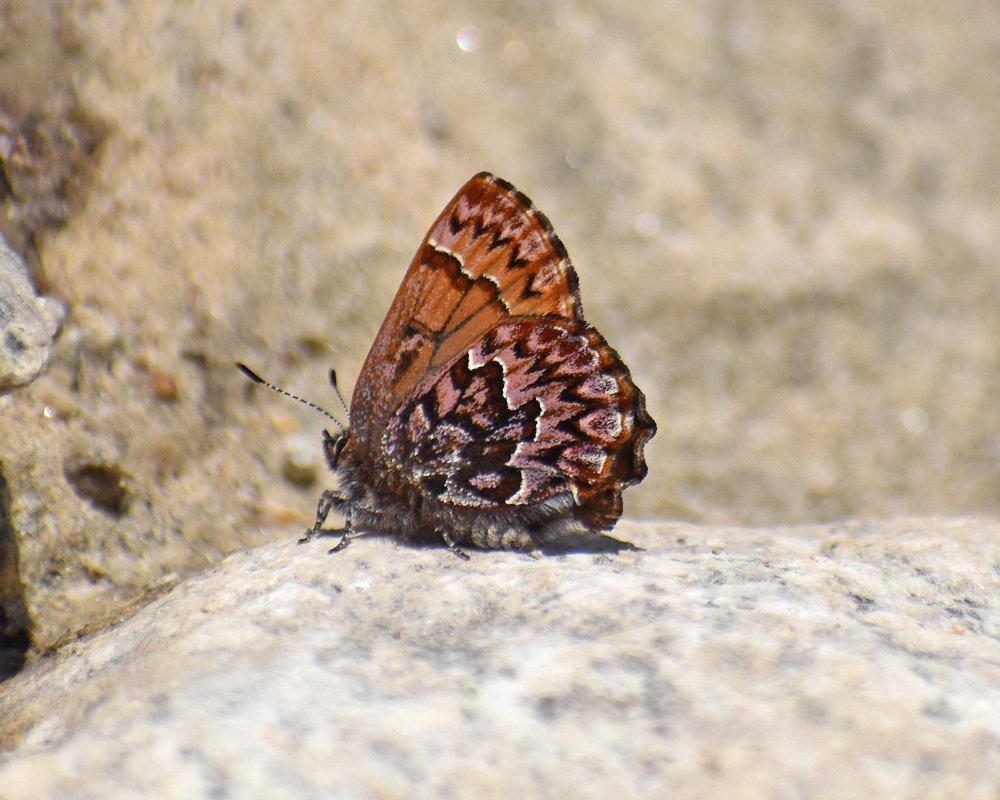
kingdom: Animalia
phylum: Arthropoda
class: Insecta
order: Lepidoptera
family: Lycaenidae
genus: Incisalia
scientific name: Incisalia eryphon
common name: Western Pine Elfin
